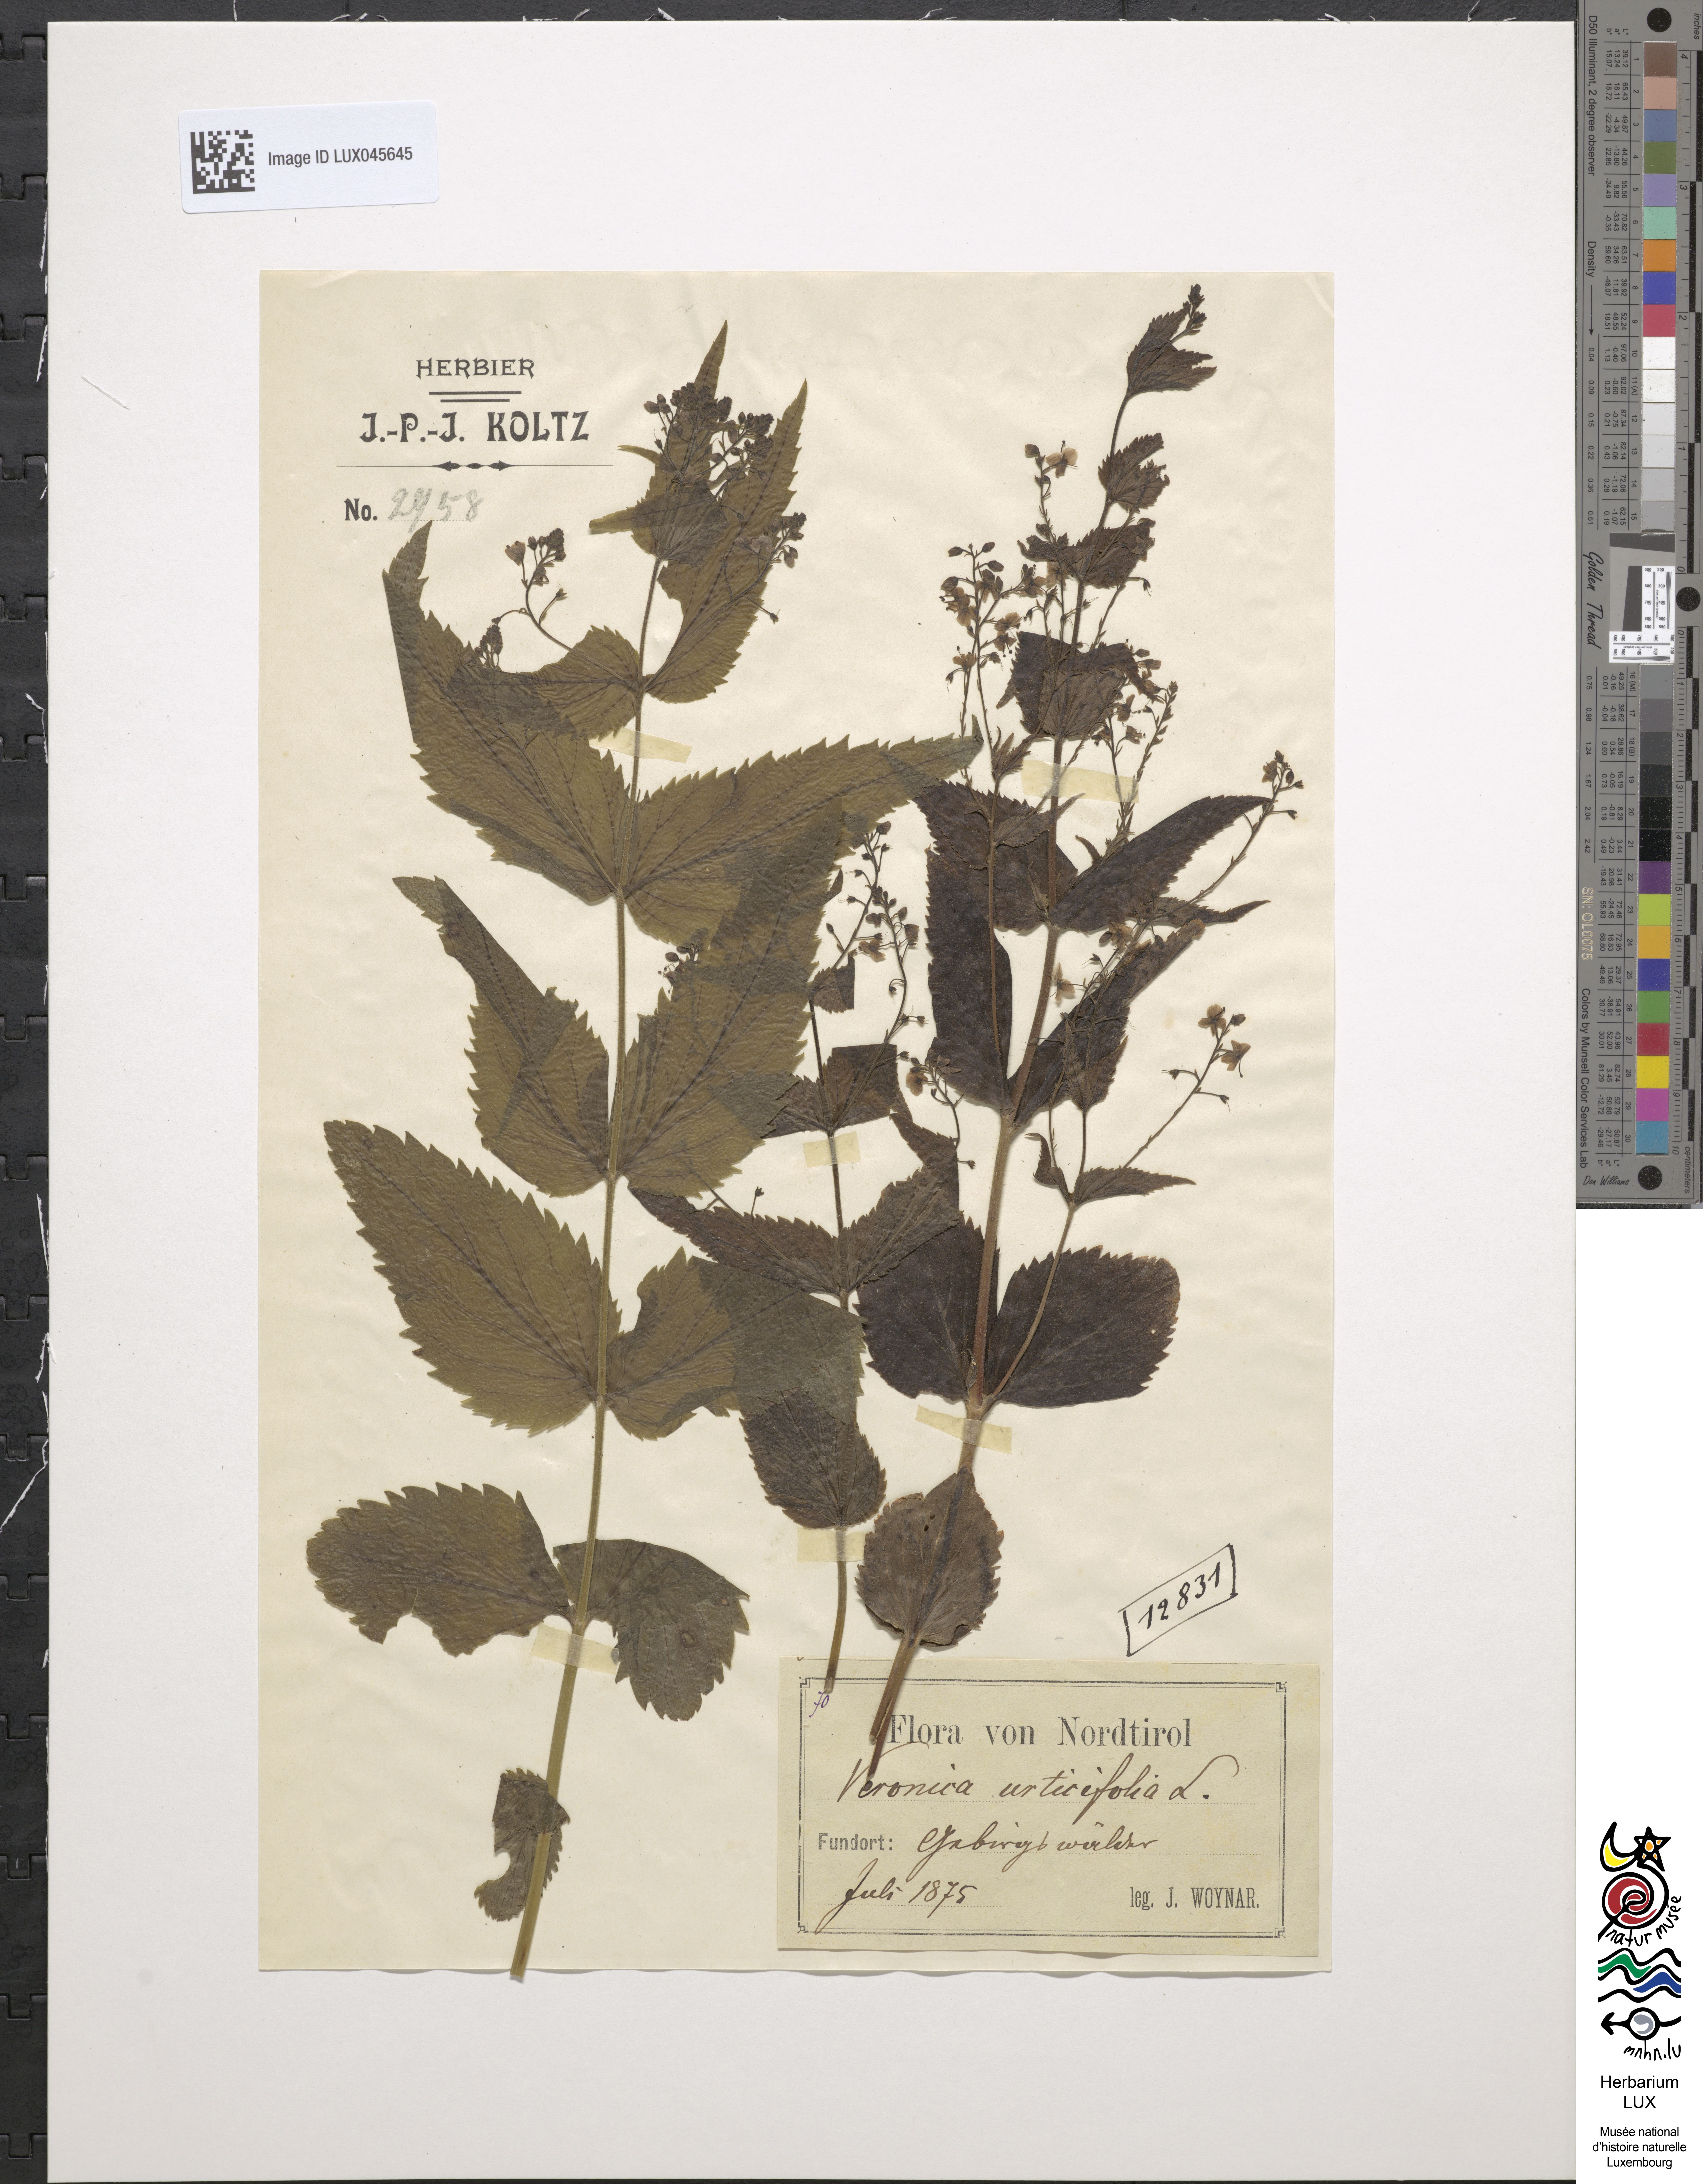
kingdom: Plantae
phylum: Tracheophyta
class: Magnoliopsida
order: Lamiales
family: Plantaginaceae
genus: Veronica
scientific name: Veronica urticifolia
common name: Nettle-leaf speedwell
